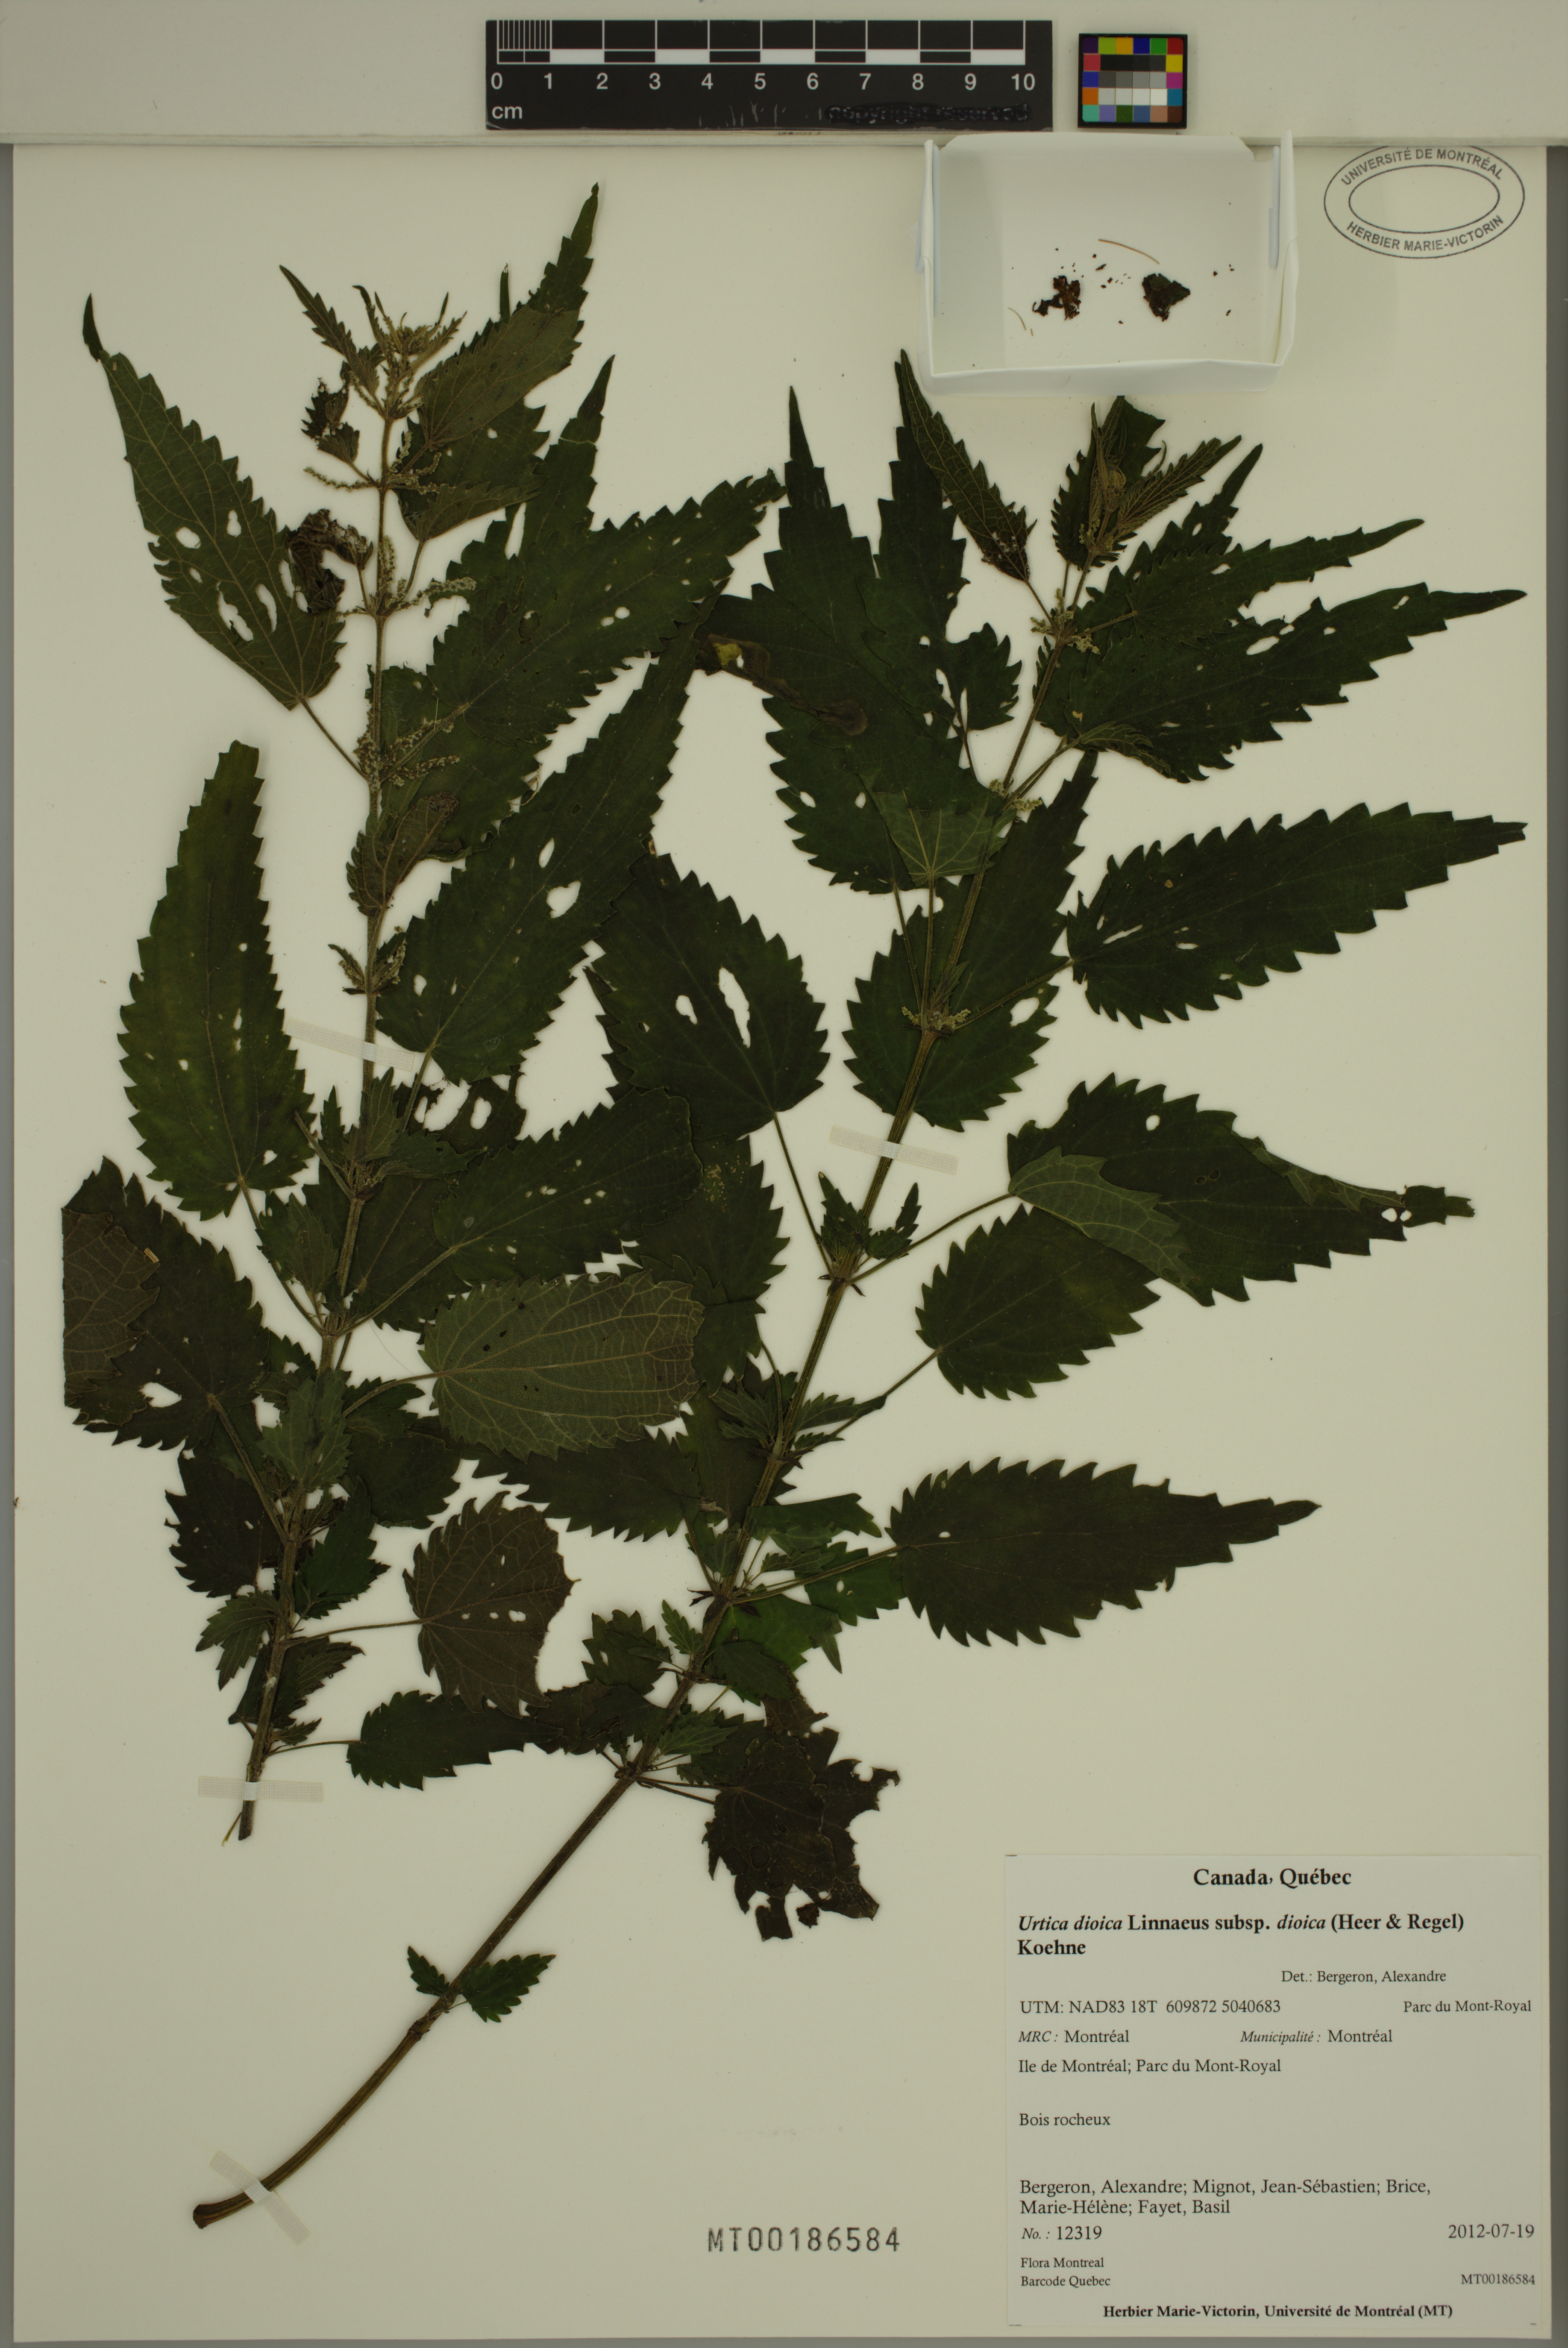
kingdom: Plantae
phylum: Tracheophyta
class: Magnoliopsida
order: Rosales
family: Urticaceae
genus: Urtica
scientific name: Urtica dioica
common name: Common nettle
